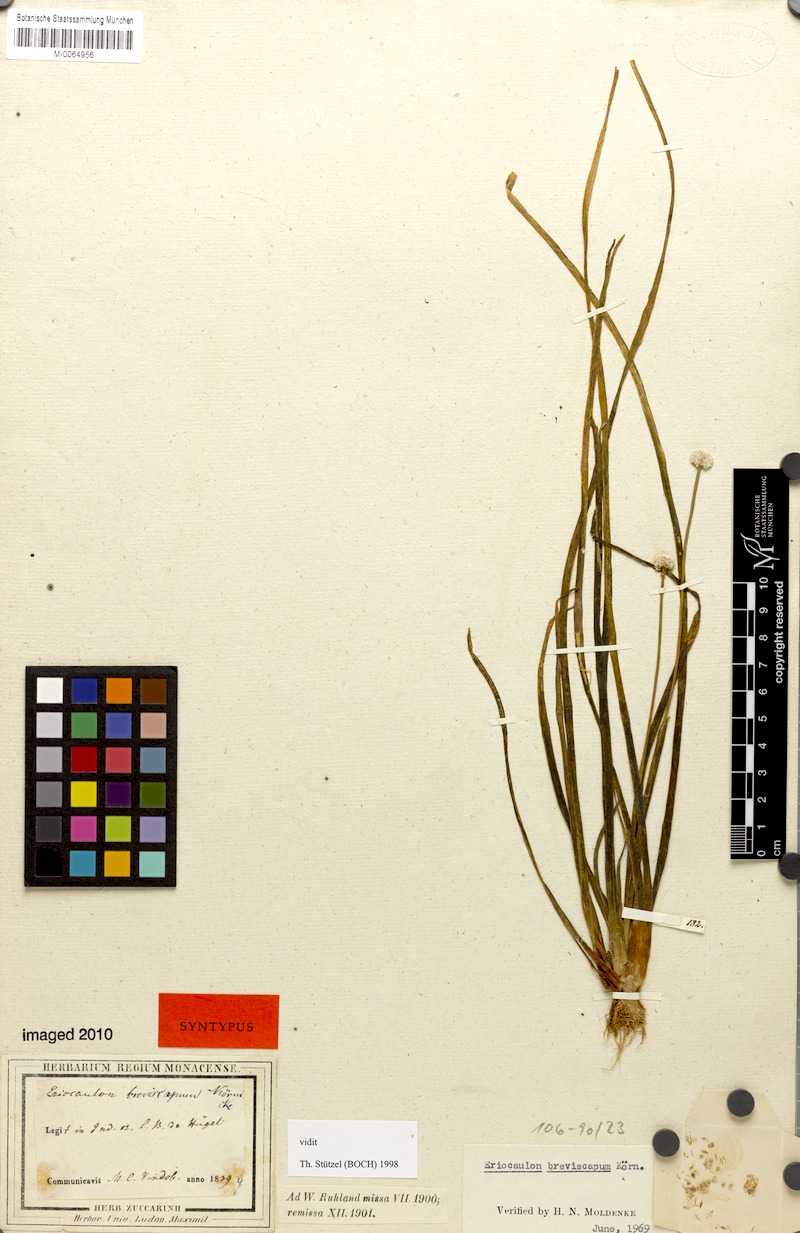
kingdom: Plantae
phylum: Tracheophyta
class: Liliopsida
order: Poales
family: Eriocaulaceae
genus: Eriocaulon
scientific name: Eriocaulon breviscapum
